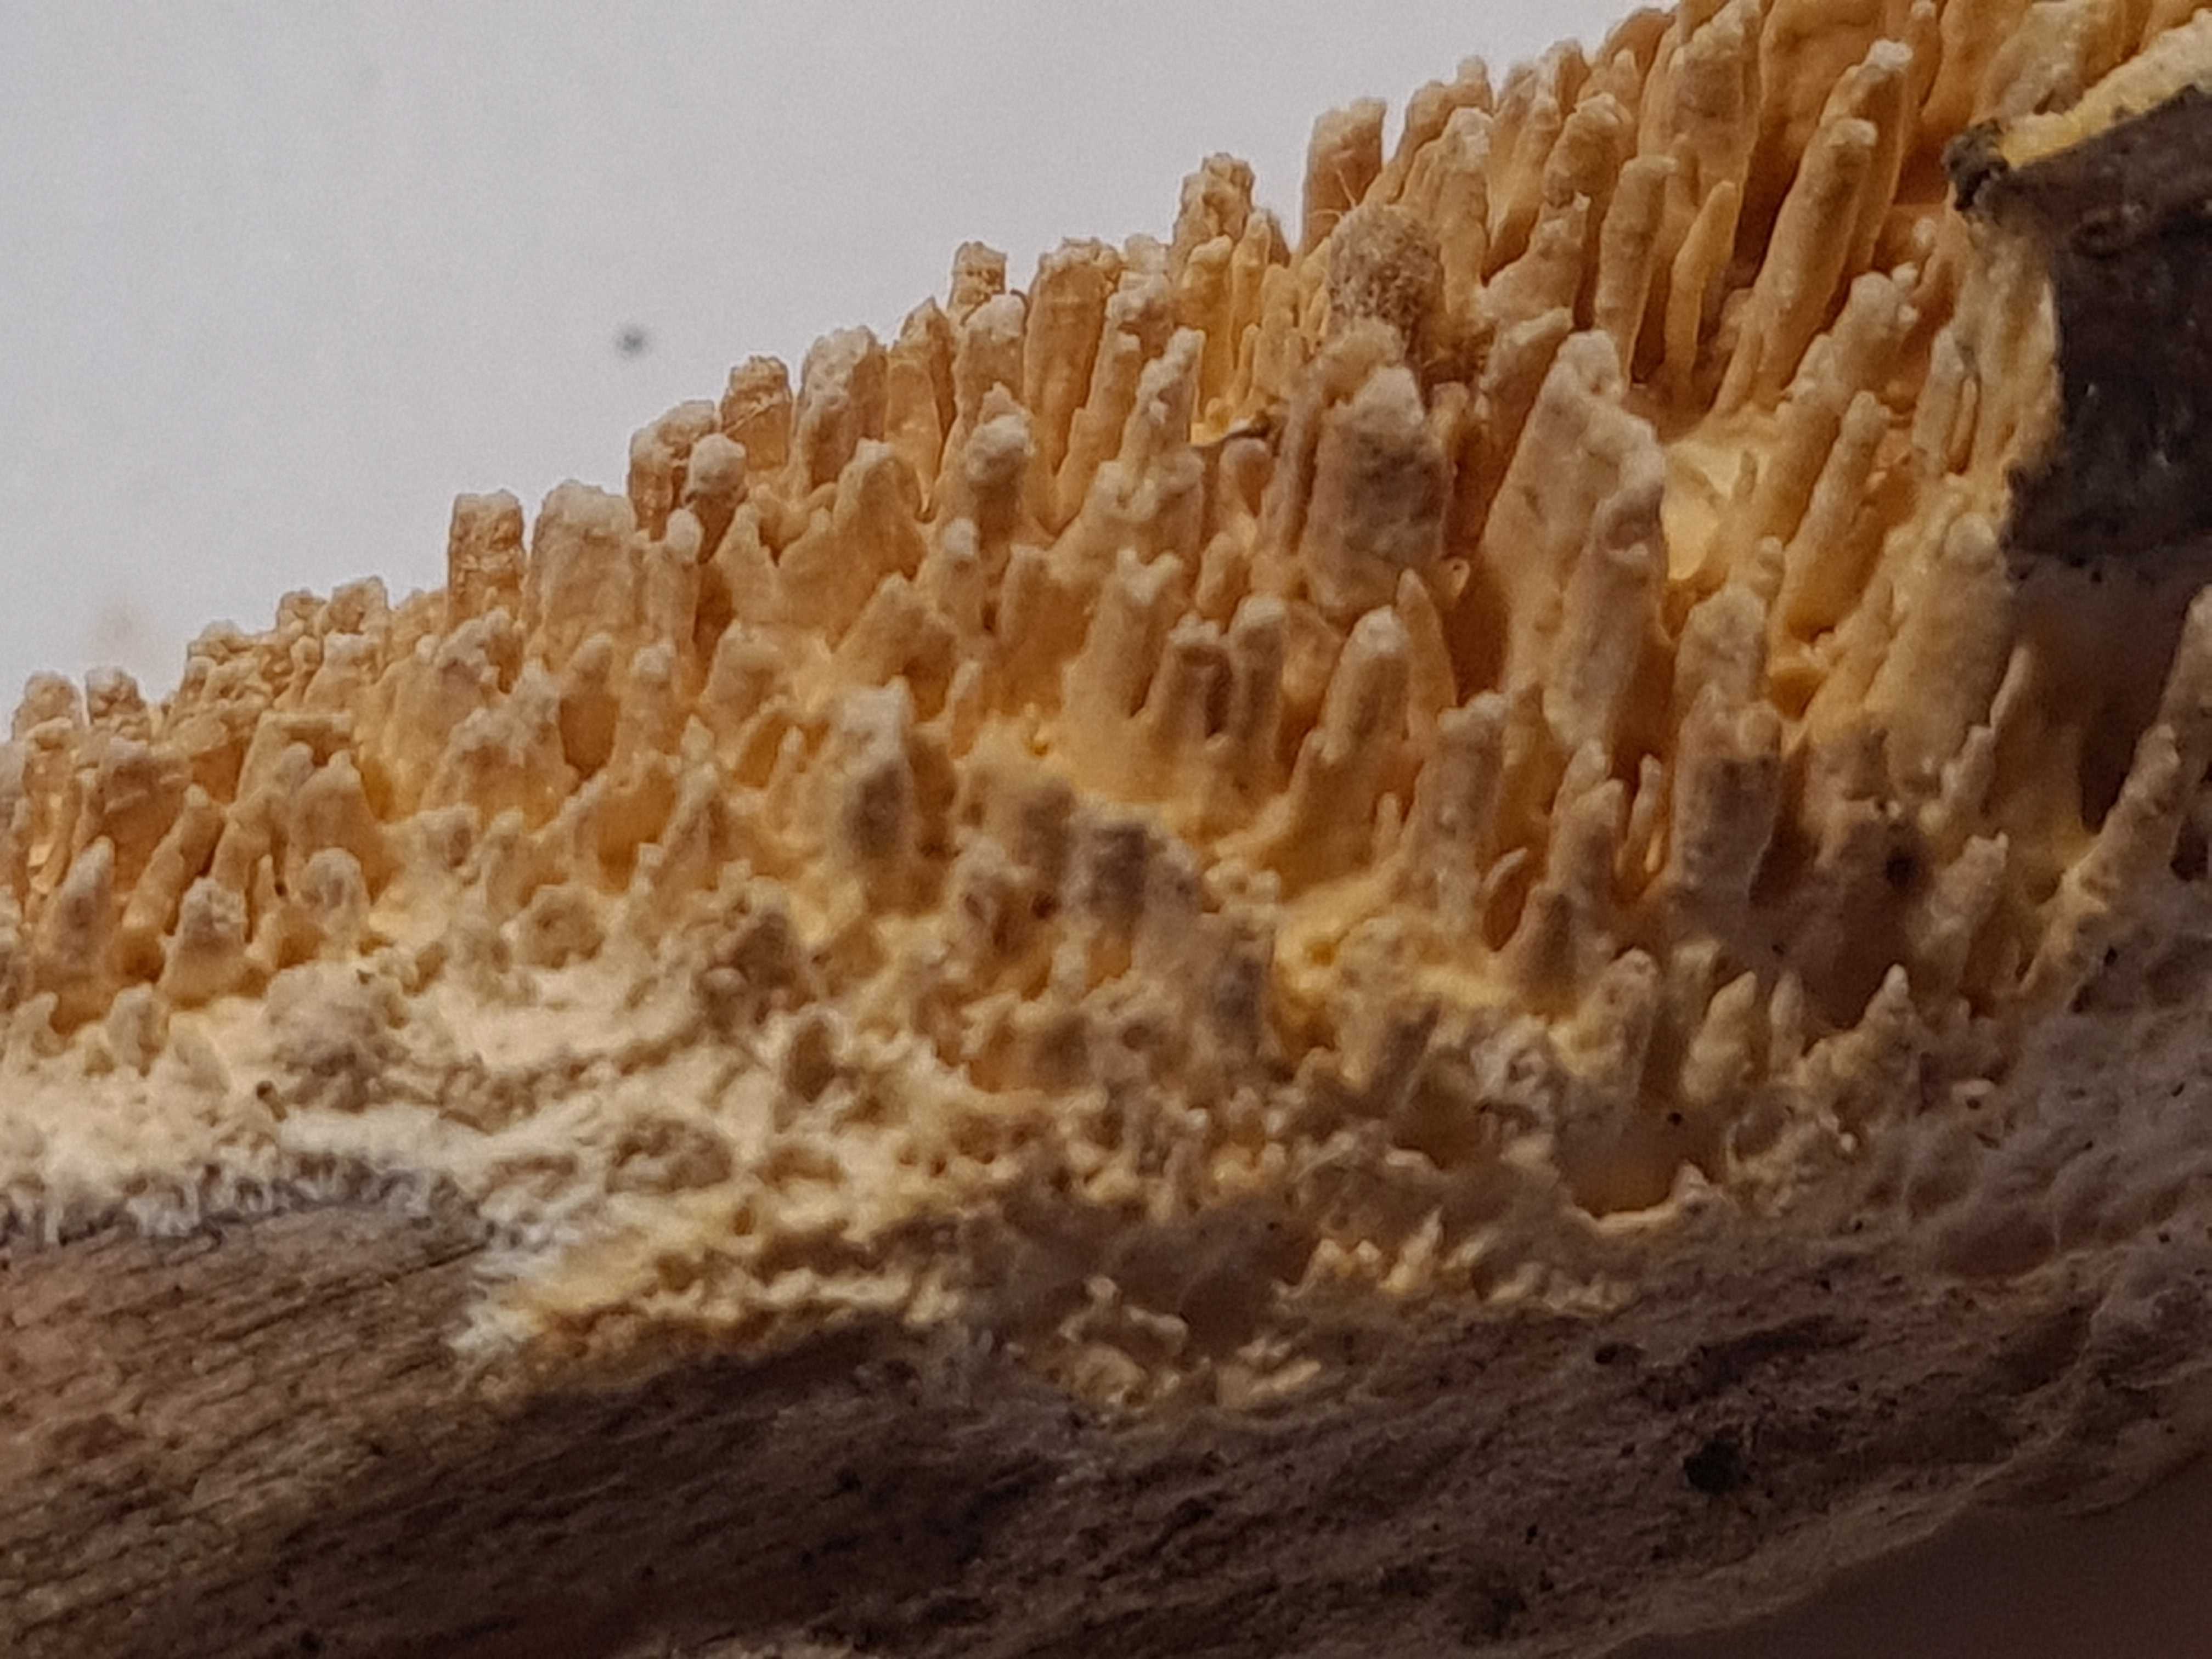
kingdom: Fungi
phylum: Basidiomycota
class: Agaricomycetes
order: Hymenochaetales
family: Schizoporaceae
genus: Xylodon
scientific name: Xylodon radula
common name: grovtandet kalkskind
